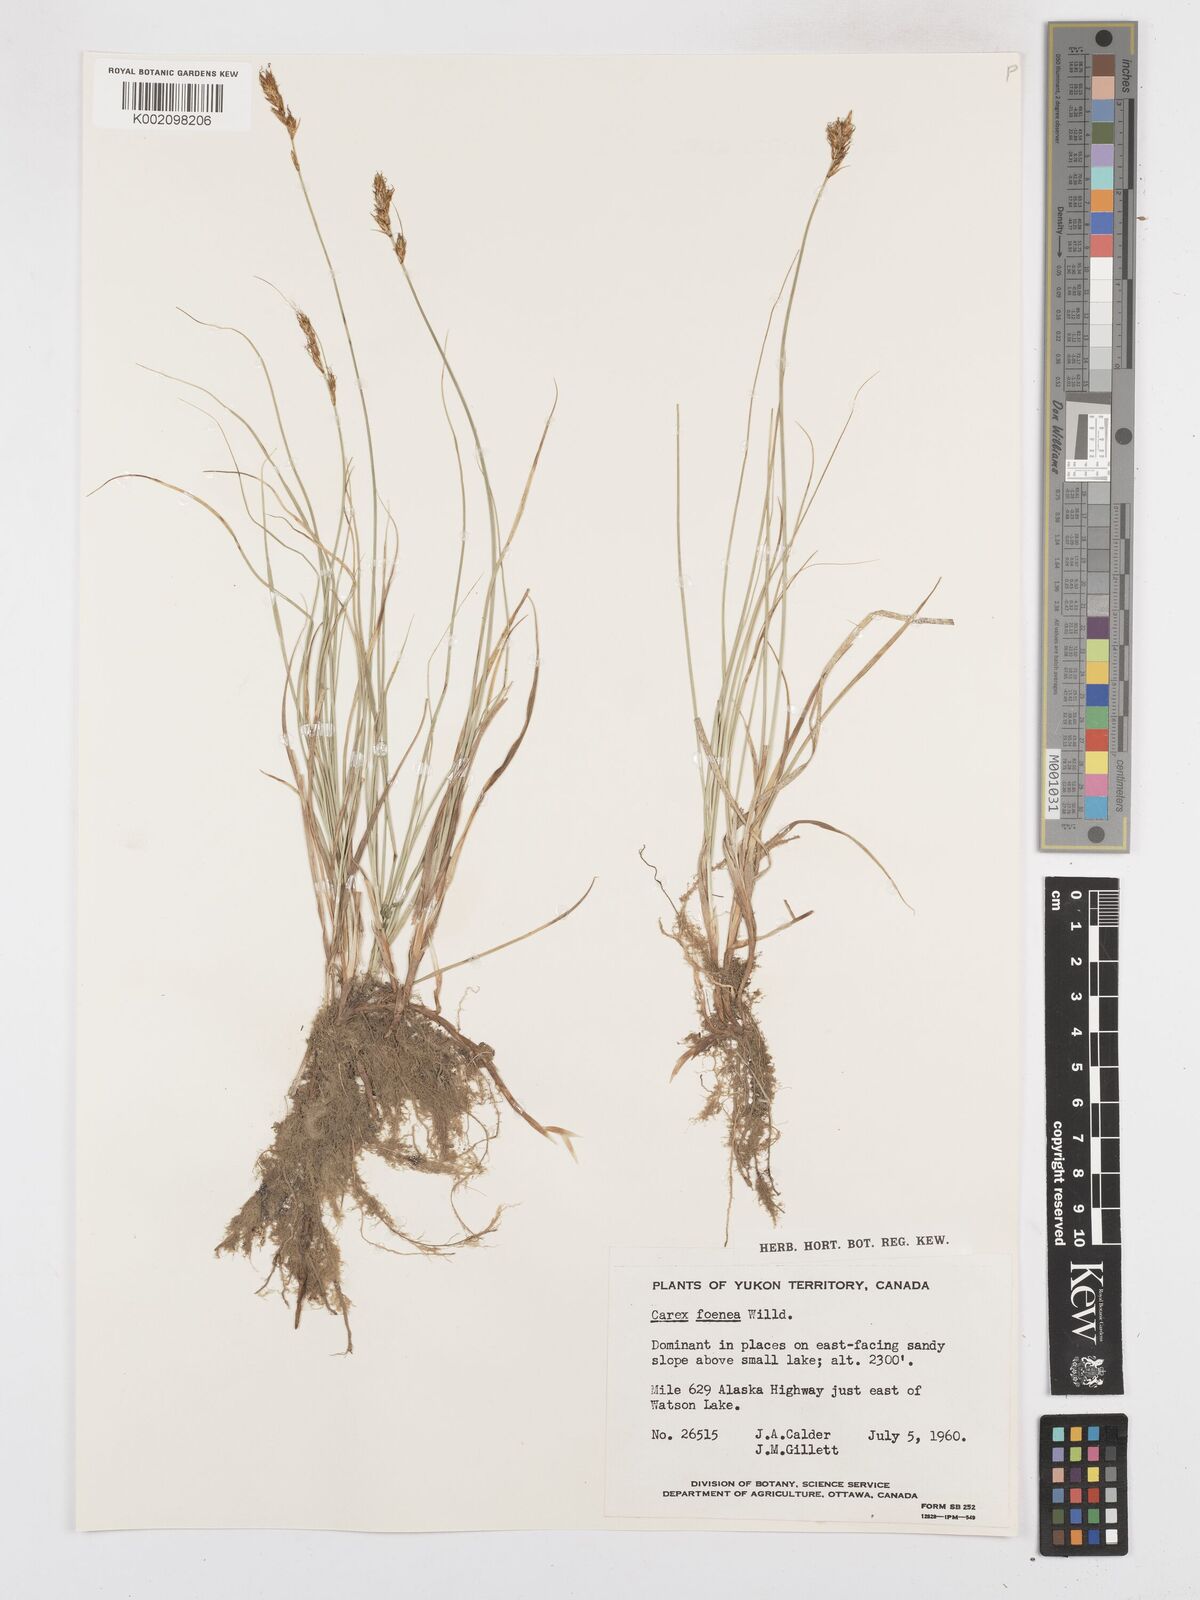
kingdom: Plantae
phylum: Tracheophyta
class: Liliopsida
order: Poales
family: Cyperaceae
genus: Carex
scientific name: Carex foenea
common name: Bronze sedge
